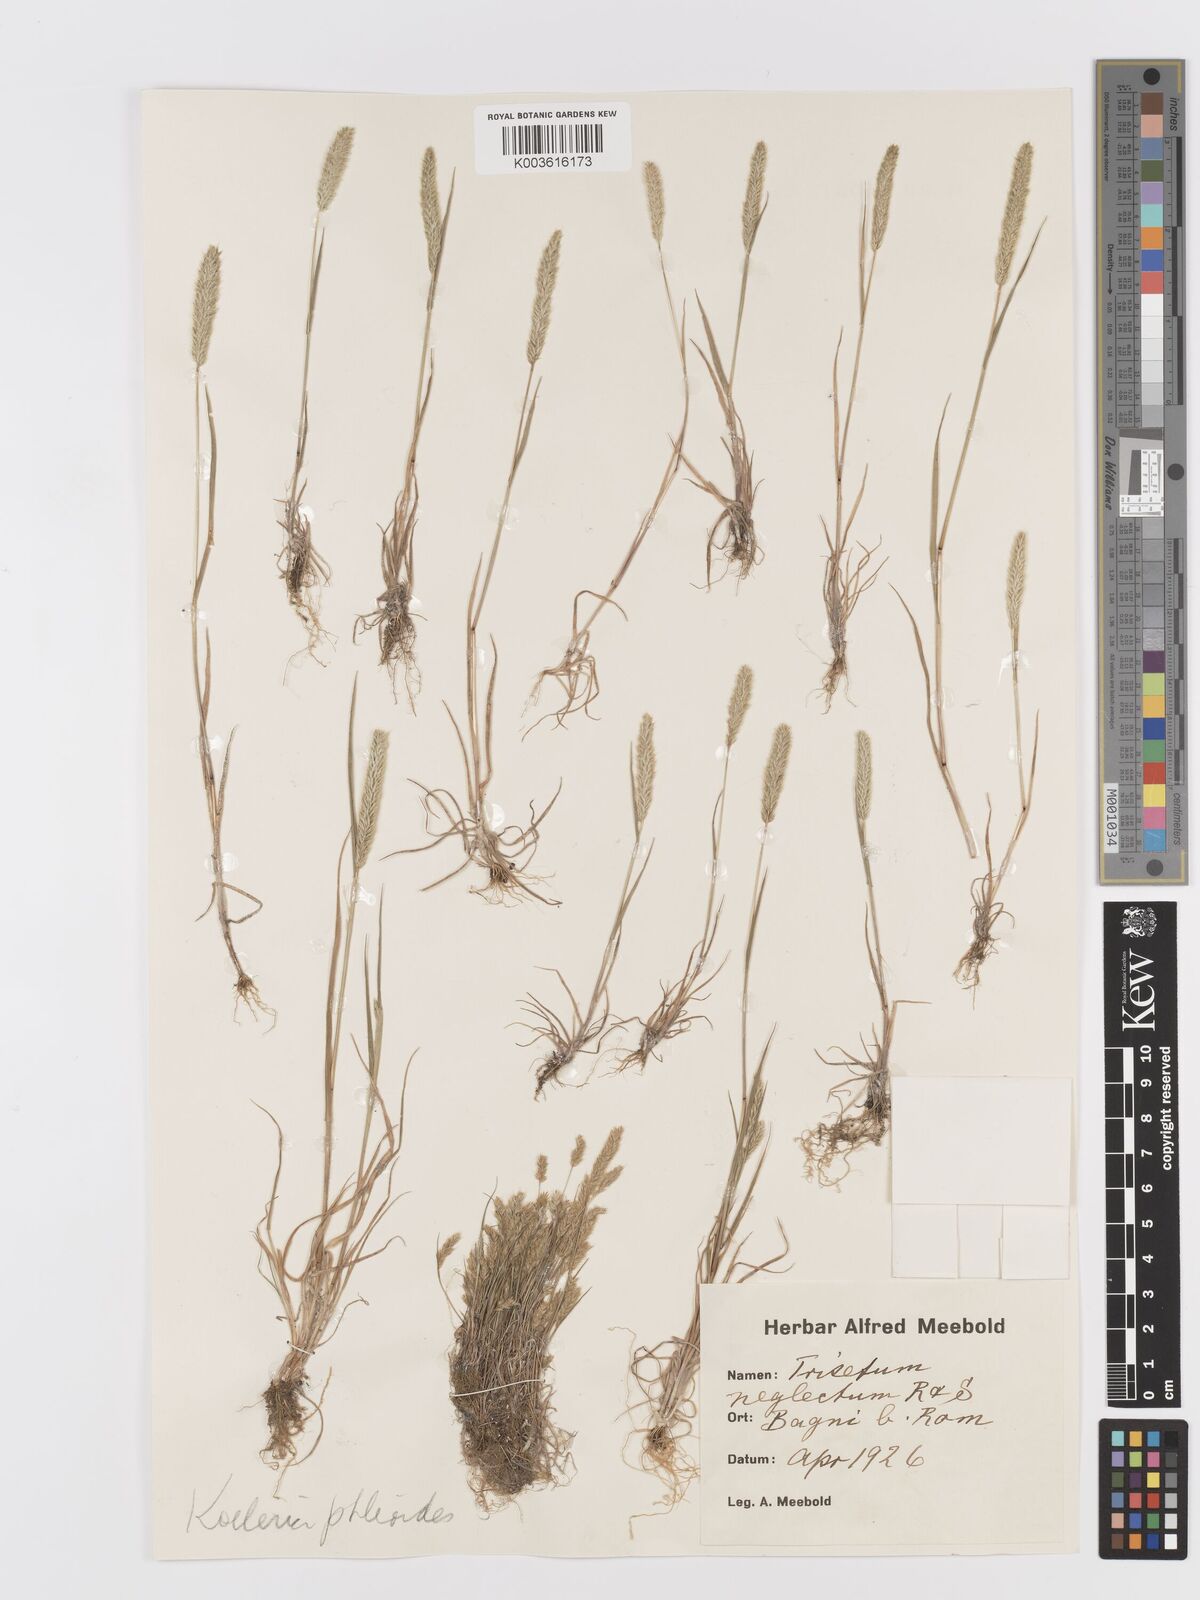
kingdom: Plantae
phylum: Tracheophyta
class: Liliopsida
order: Poales
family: Poaceae
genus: Trisetaria
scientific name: Trisetaria panicea
